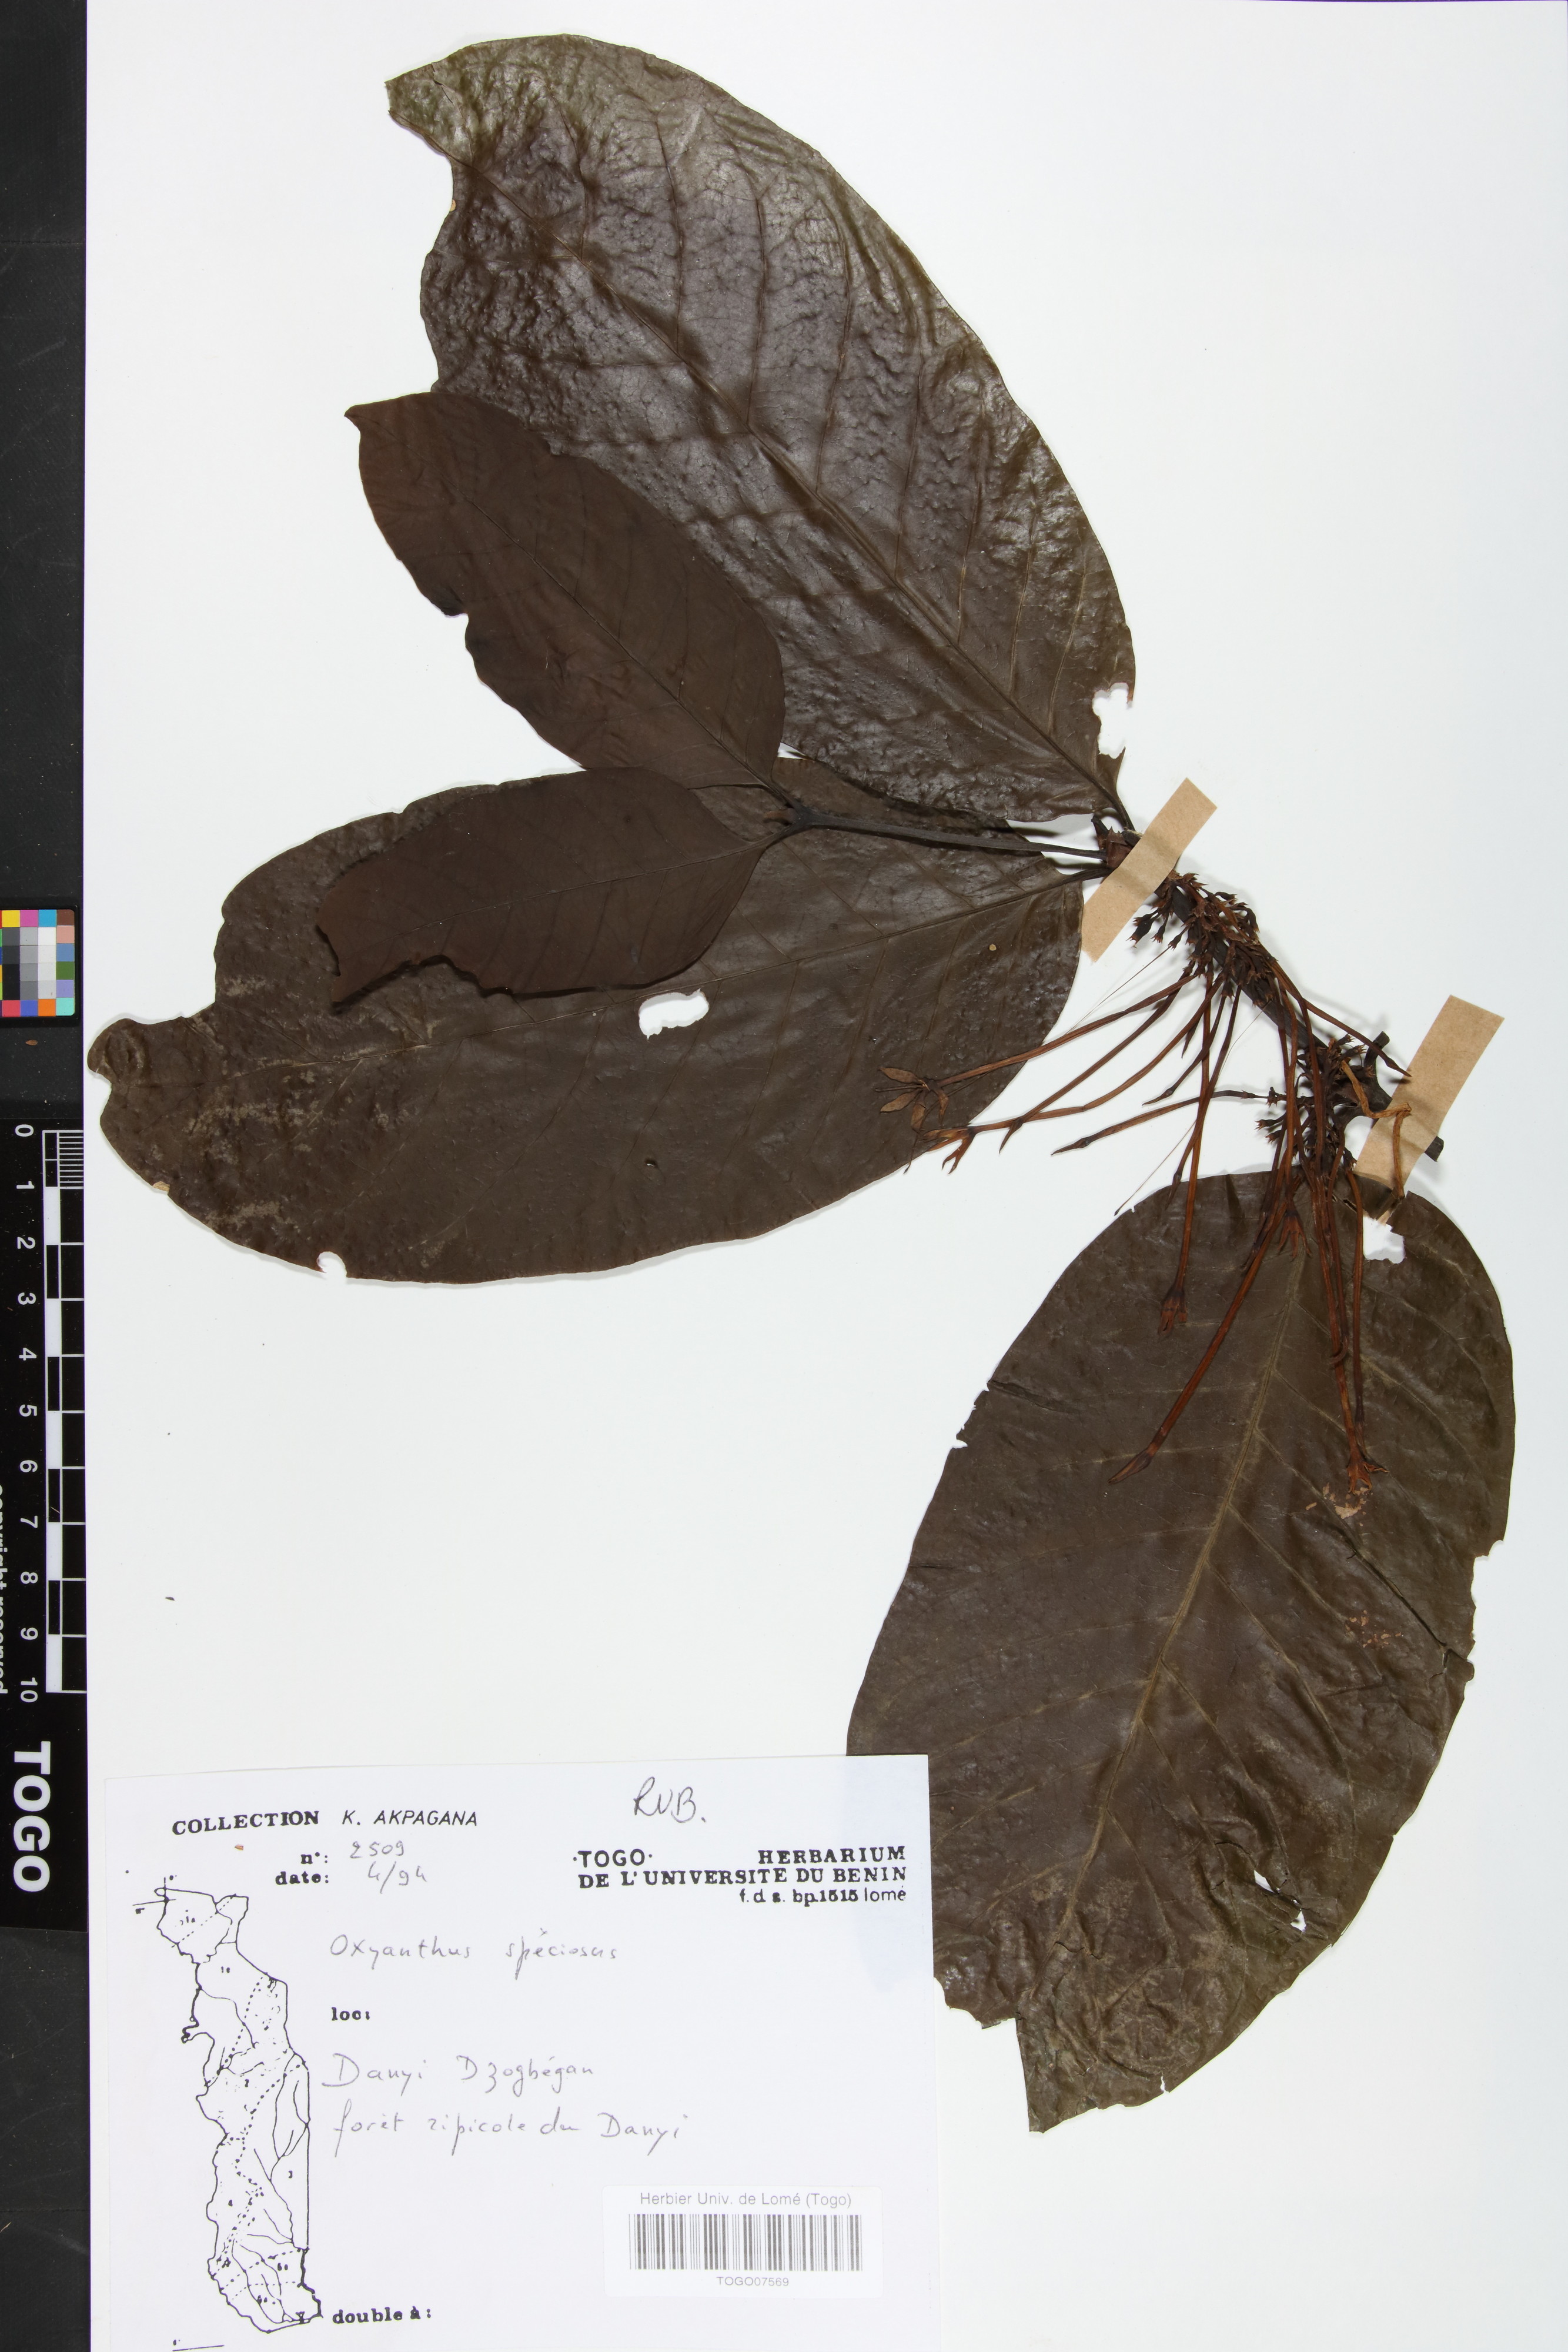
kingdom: Plantae
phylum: Tracheophyta
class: Magnoliopsida
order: Gentianales
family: Rubiaceae
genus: Oxyanthus
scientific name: Oxyanthus speciosus
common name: Whipstick loquat
